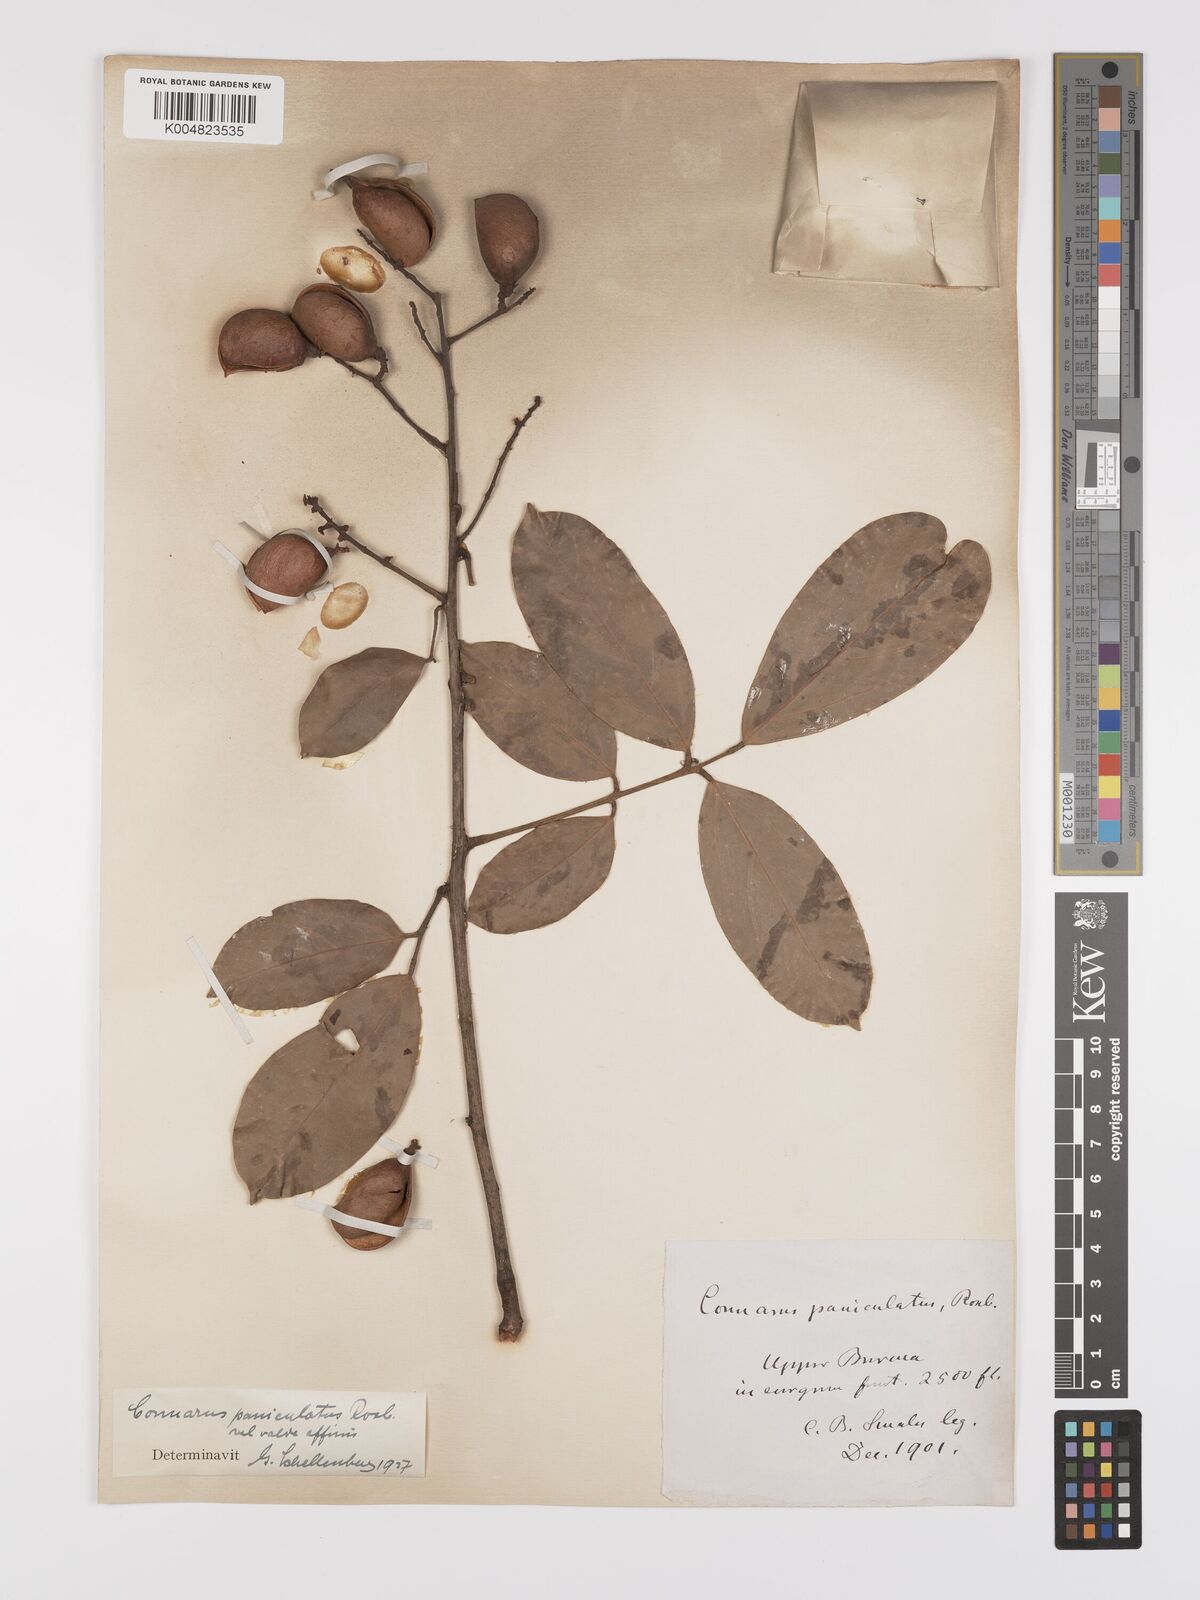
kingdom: Plantae
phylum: Tracheophyta
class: Magnoliopsida
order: Oxalidales
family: Connaraceae
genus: Connarus
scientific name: Connarus paniculatus
